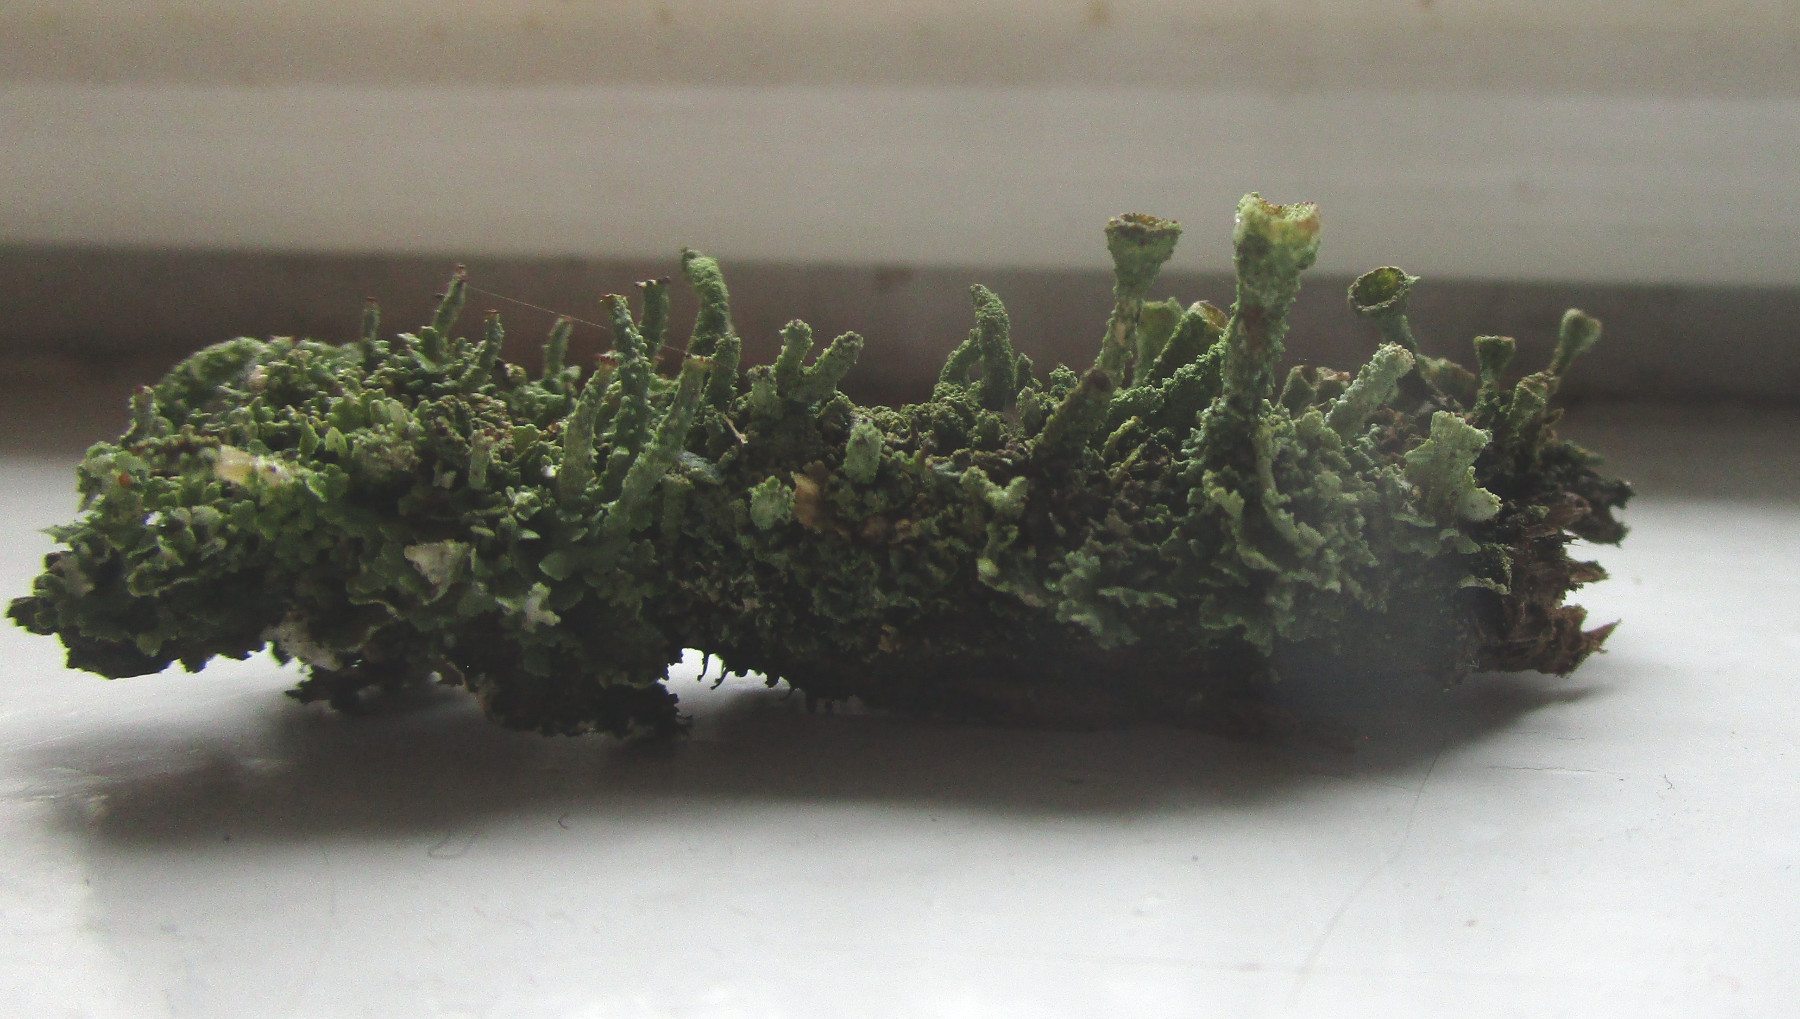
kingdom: Fungi
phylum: Ascomycota
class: Lecanoromycetes
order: Lecanorales
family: Cladoniaceae
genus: Cladonia
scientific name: Cladonia
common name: brungrøn bægerlav
